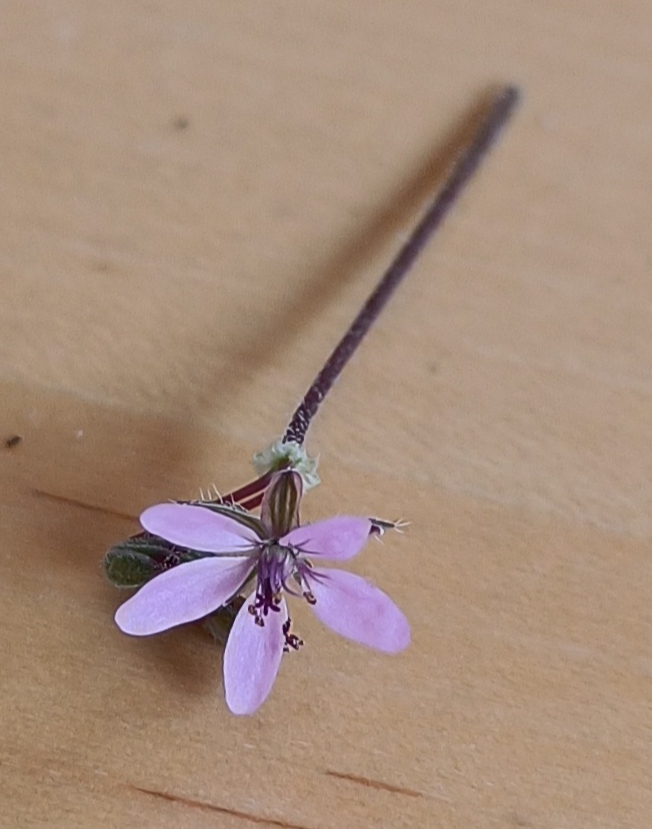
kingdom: Plantae
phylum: Tracheophyta
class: Magnoliopsida
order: Geraniales
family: Geraniaceae
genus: Erodium
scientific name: Erodium cicutarium
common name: Hejrenæb
